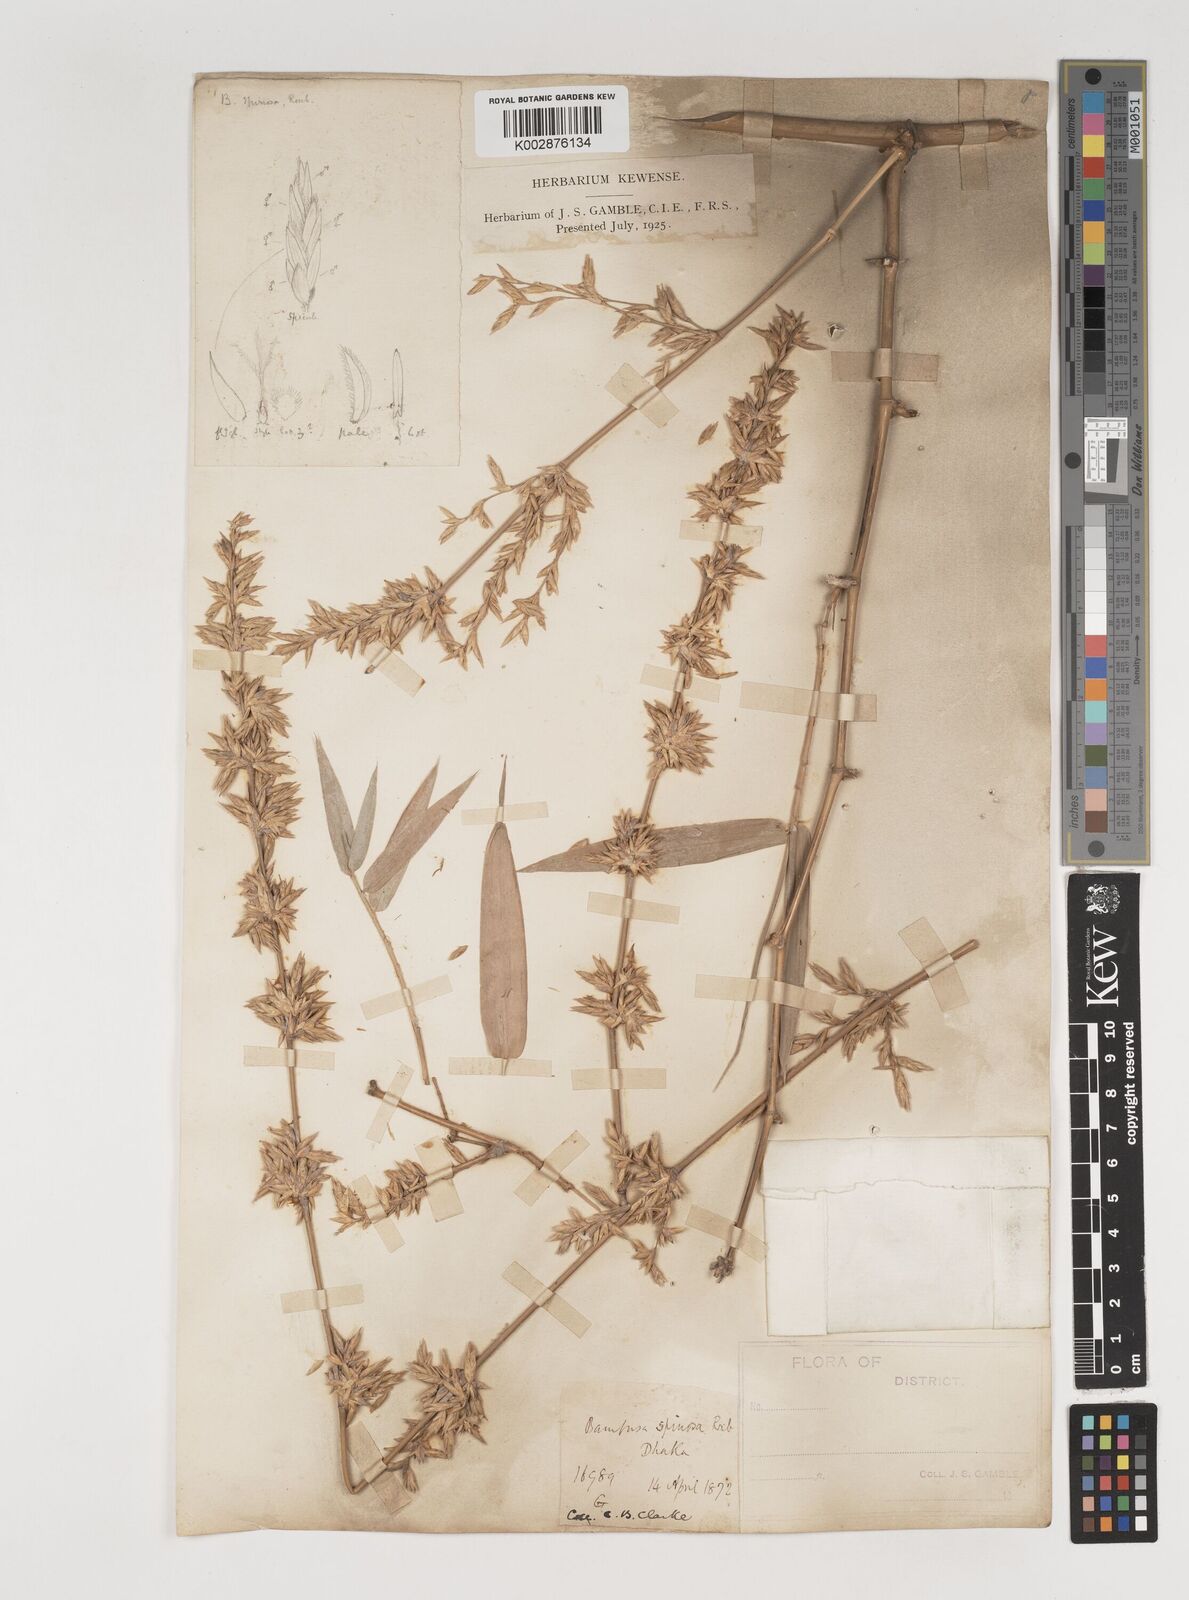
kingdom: Plantae
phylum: Tracheophyta
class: Liliopsida
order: Poales
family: Poaceae
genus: Bambusa
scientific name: Bambusa bambos
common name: Indian thorny bamboo
